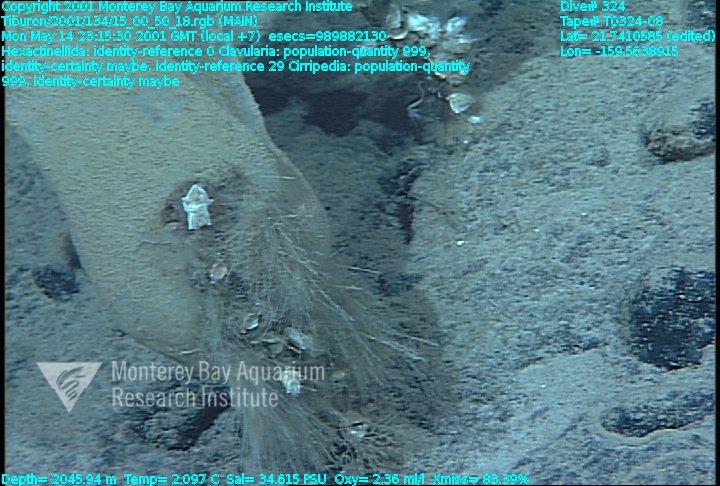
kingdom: Animalia
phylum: Porifera
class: Hexactinellida
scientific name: Hexactinellida
